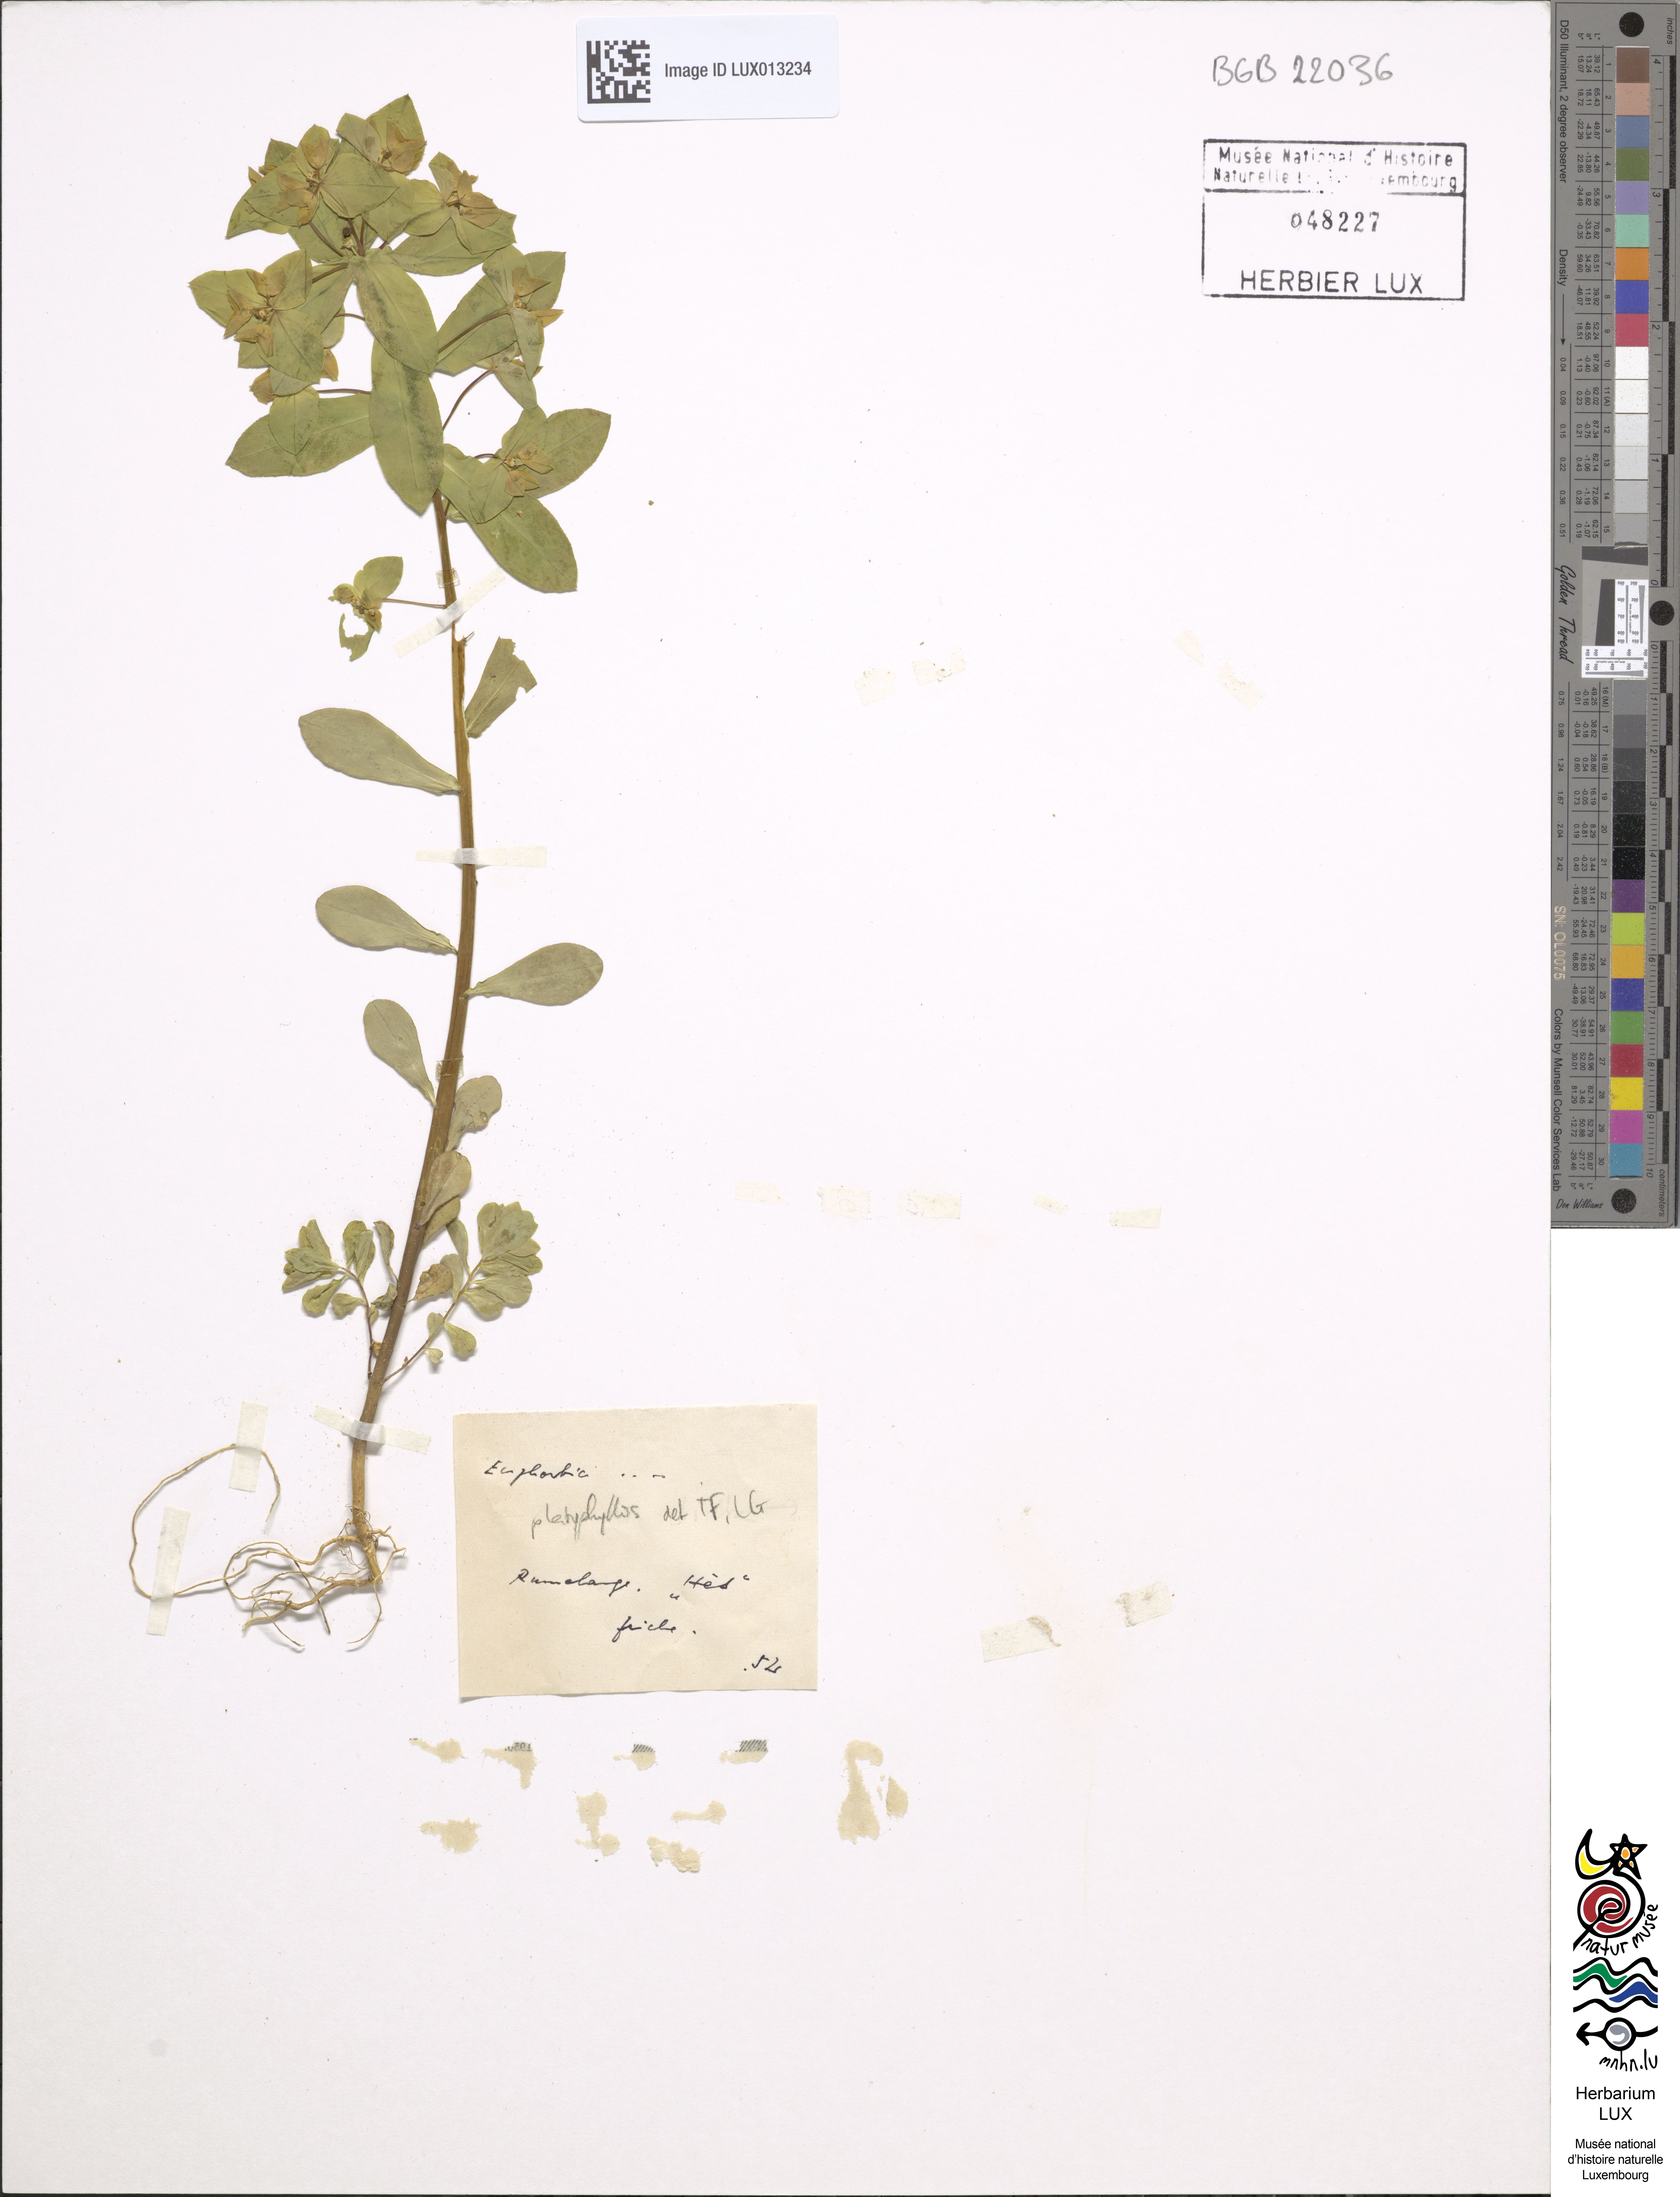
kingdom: Plantae
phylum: Tracheophyta
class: Magnoliopsida
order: Malpighiales
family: Euphorbiaceae
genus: Euphorbia
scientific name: Euphorbia platyphyllos
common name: Broad-leaved spurge
